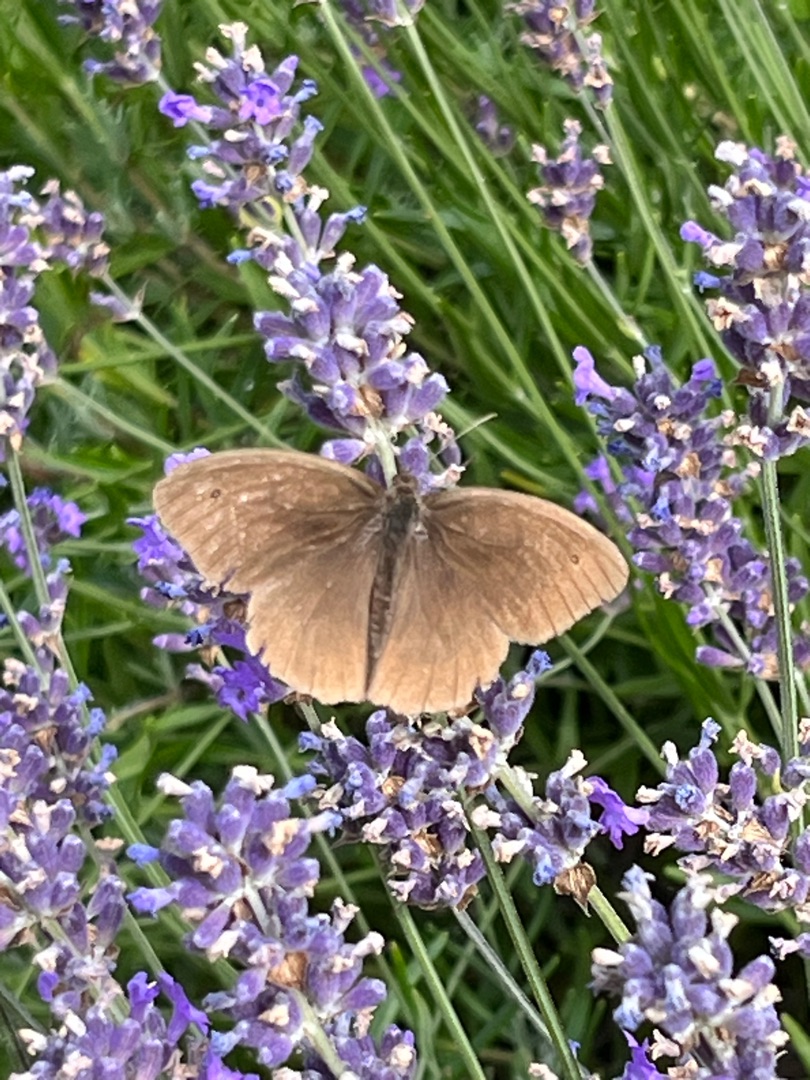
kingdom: Animalia
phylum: Arthropoda
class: Insecta
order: Lepidoptera
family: Nymphalidae
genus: Aphantopus
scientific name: Aphantopus hyperantus
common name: Engrandøje
